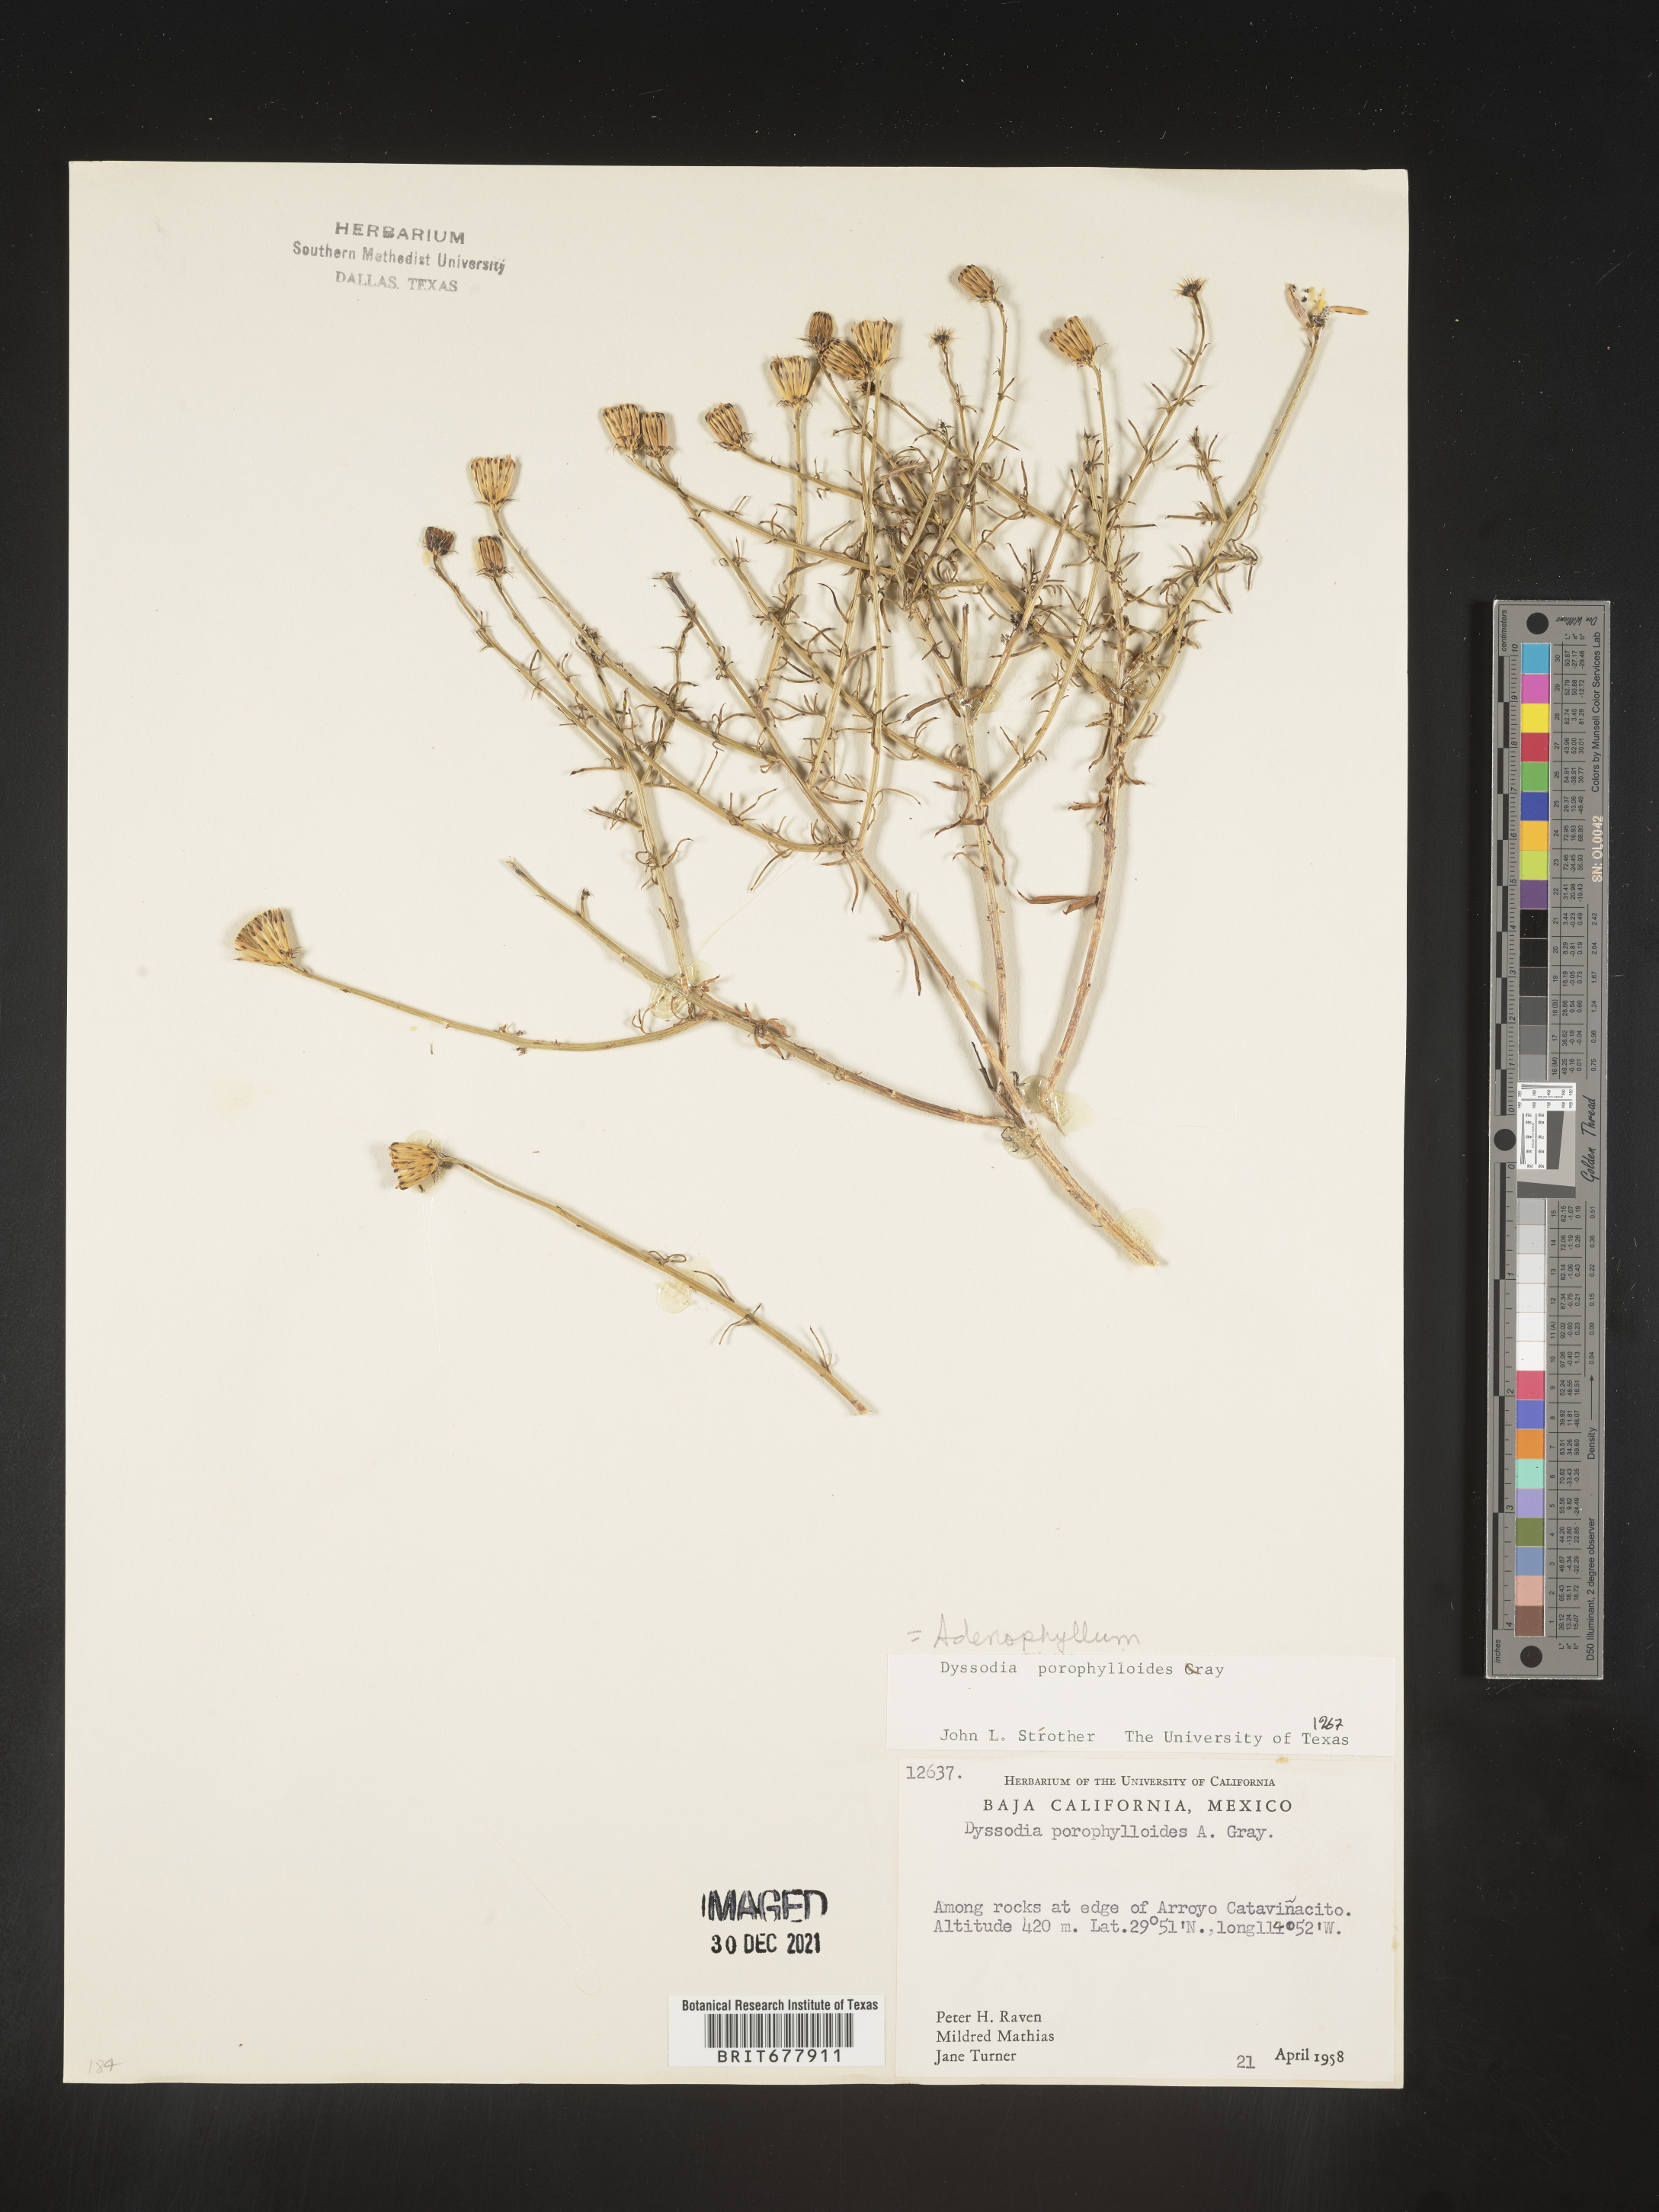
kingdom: Plantae
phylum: Tracheophyta
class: Magnoliopsida
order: Asterales
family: Asteraceae
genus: Adenophyllum
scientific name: Adenophyllum porophylloides
